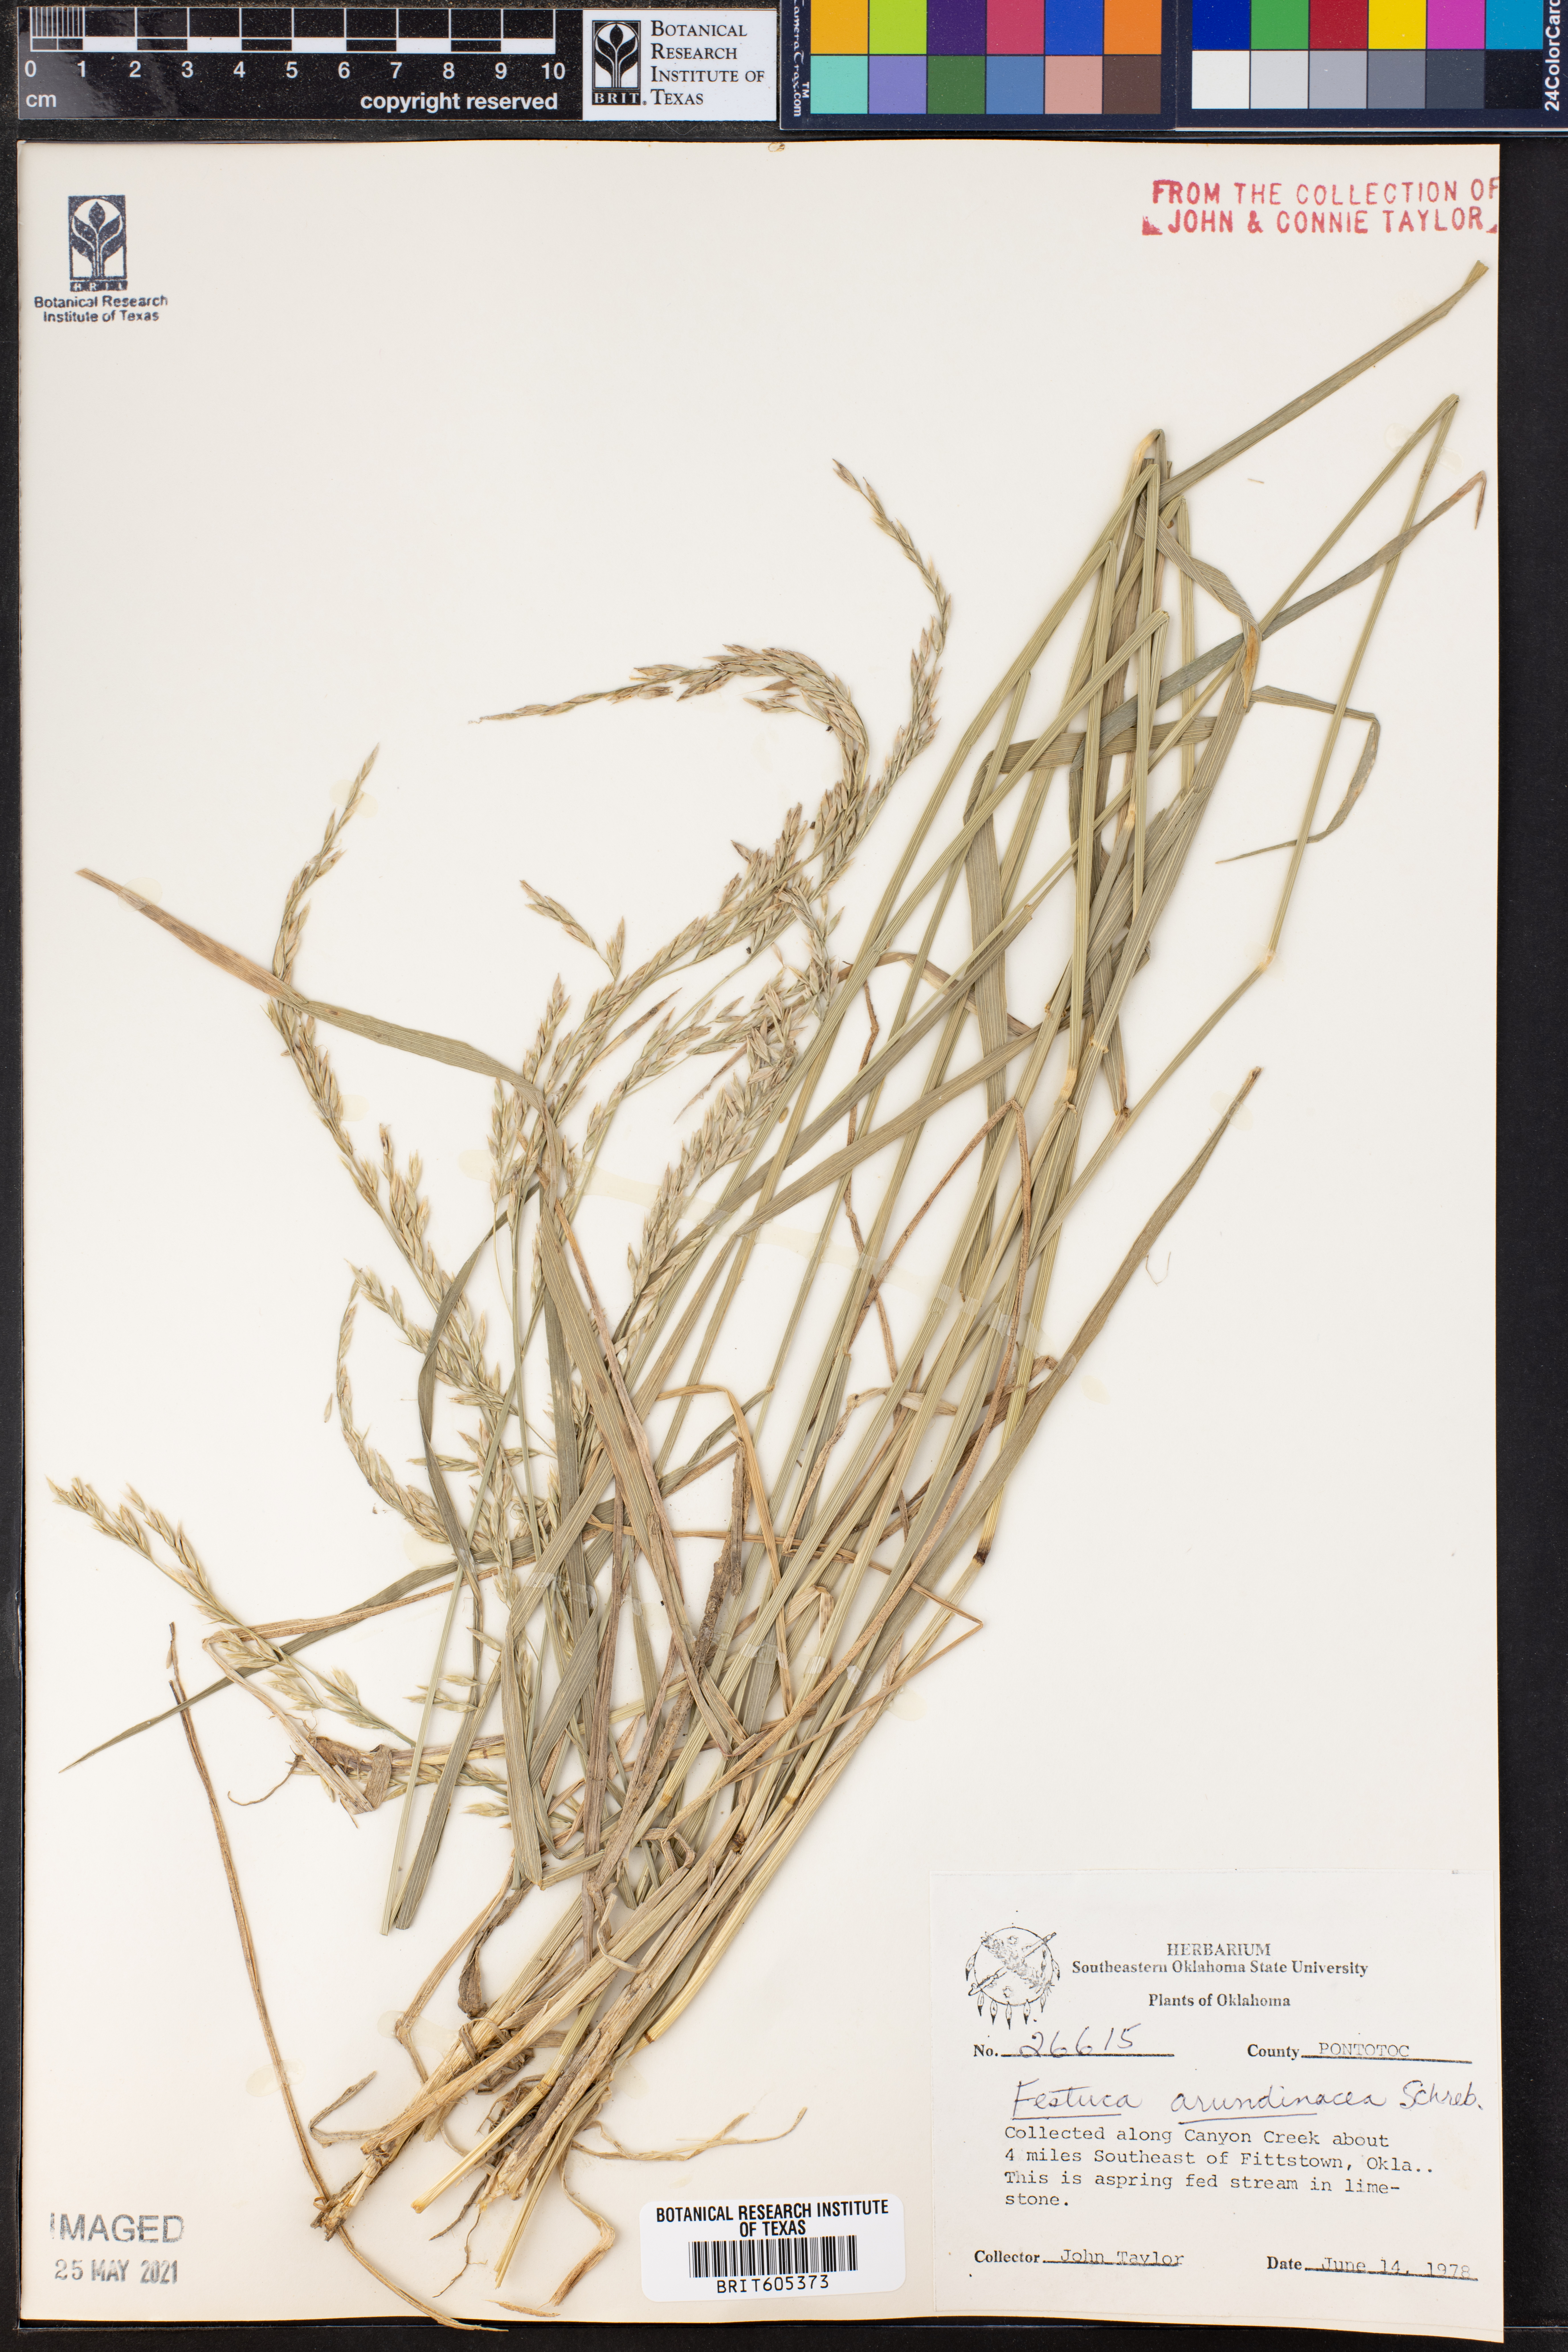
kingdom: Plantae
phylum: Tracheophyta
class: Liliopsida
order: Poales
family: Poaceae
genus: Lolium
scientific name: Lolium arundinaceum
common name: Reed fescue
